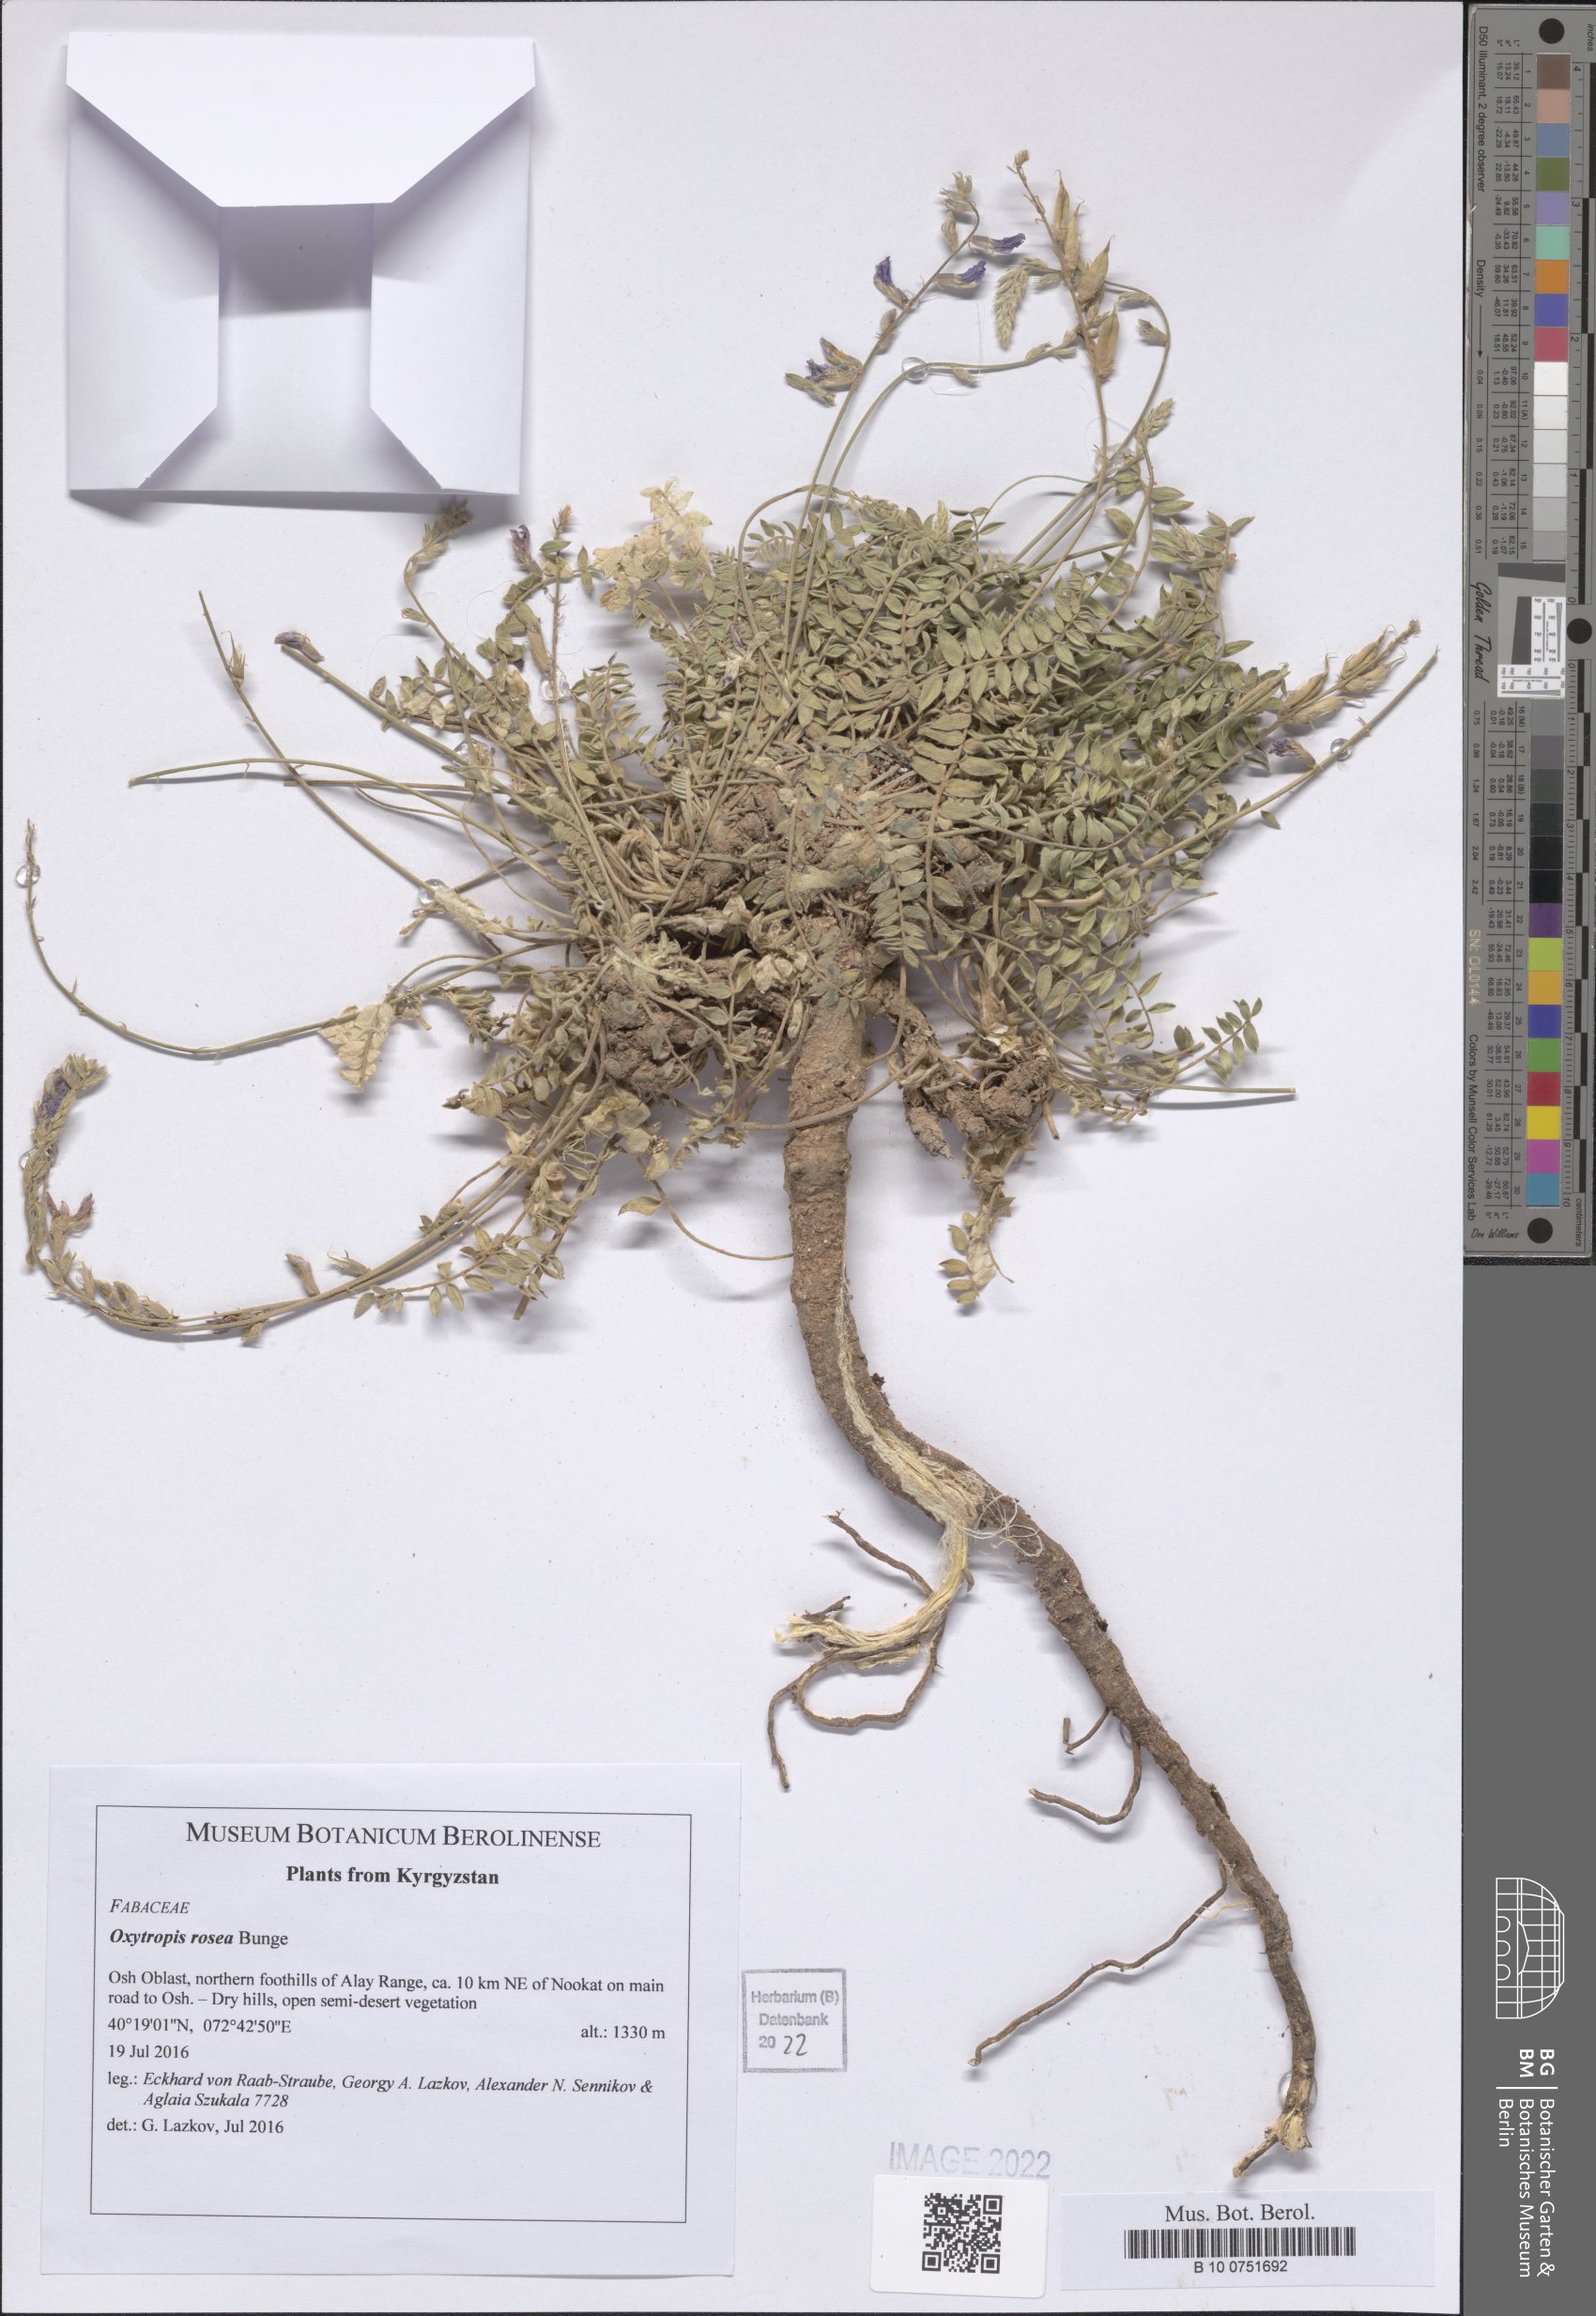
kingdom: Plantae
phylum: Tracheophyta
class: Magnoliopsida
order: Fabales
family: Fabaceae
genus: Oxytropis
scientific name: Oxytropis rosea
